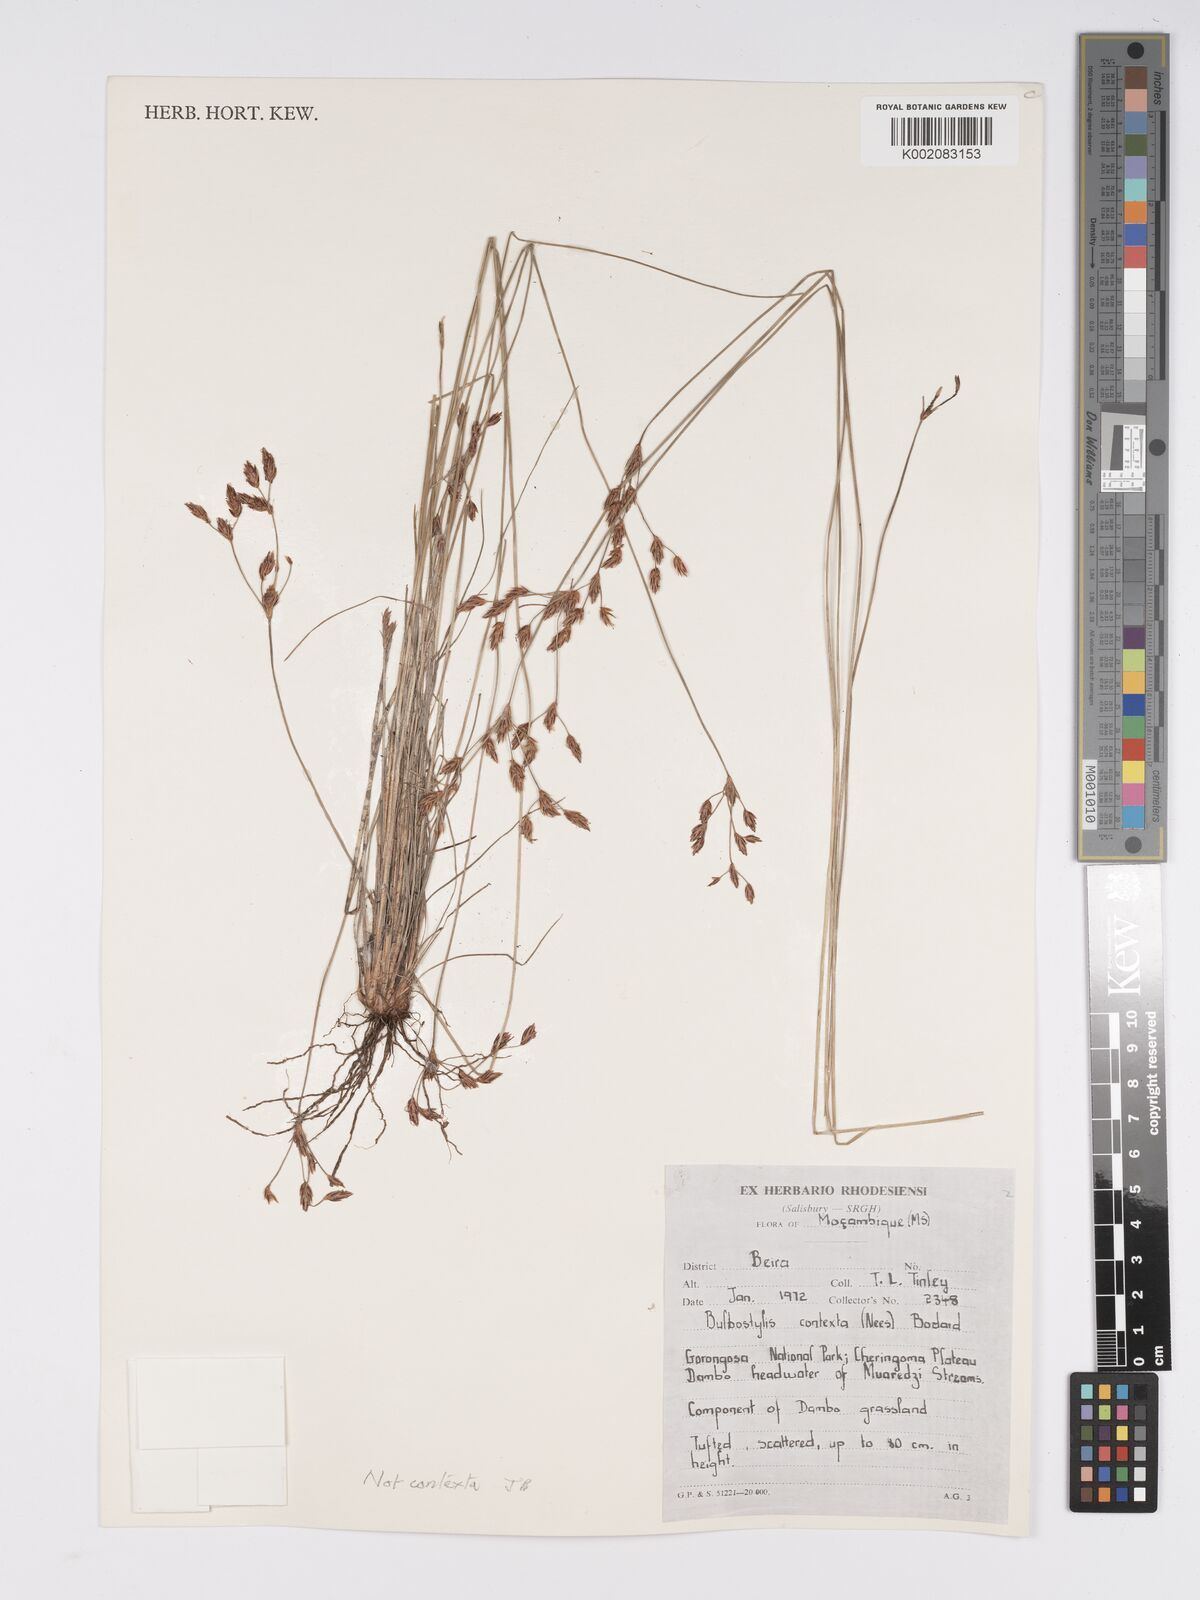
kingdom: Plantae
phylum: Tracheophyta
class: Liliopsida
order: Poales
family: Cyperaceae
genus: Bulbostylis
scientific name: Bulbostylis contexta
